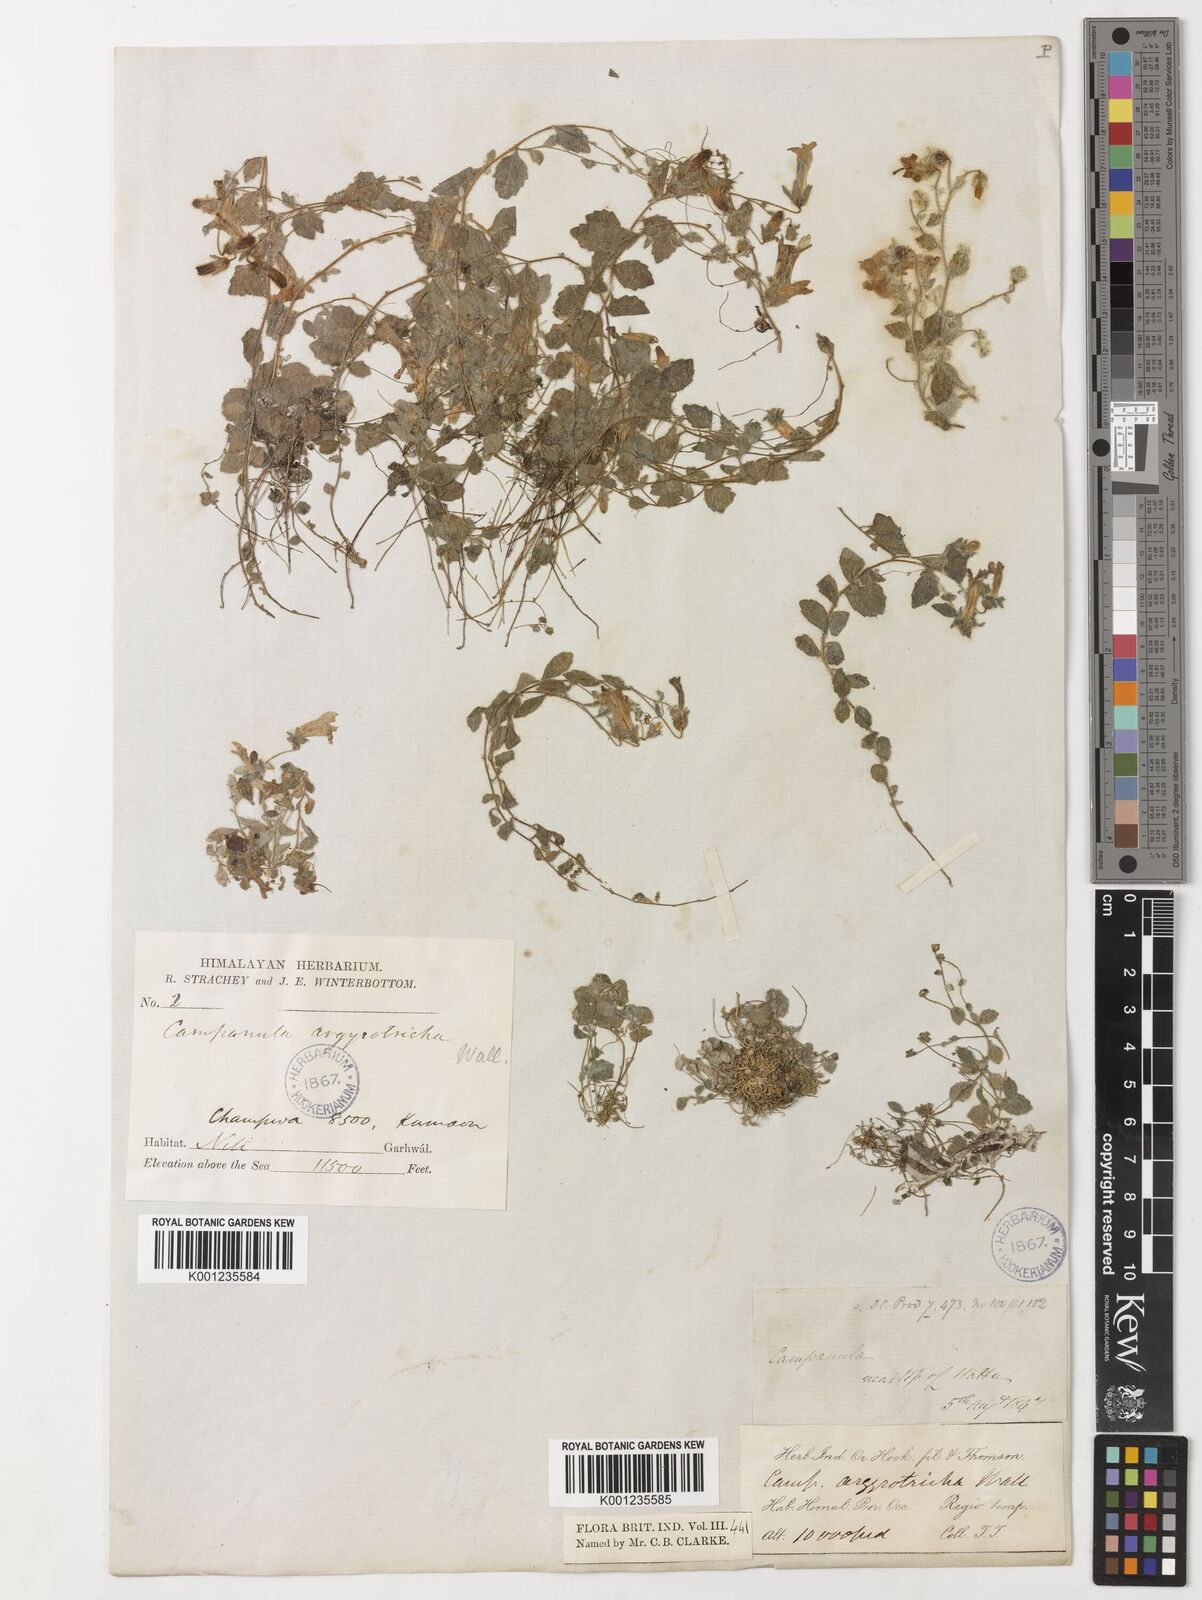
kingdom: Plantae
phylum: Tracheophyta
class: Magnoliopsida
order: Asterales
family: Campanulaceae
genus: Campanula
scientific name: Campanula argyrotricha
